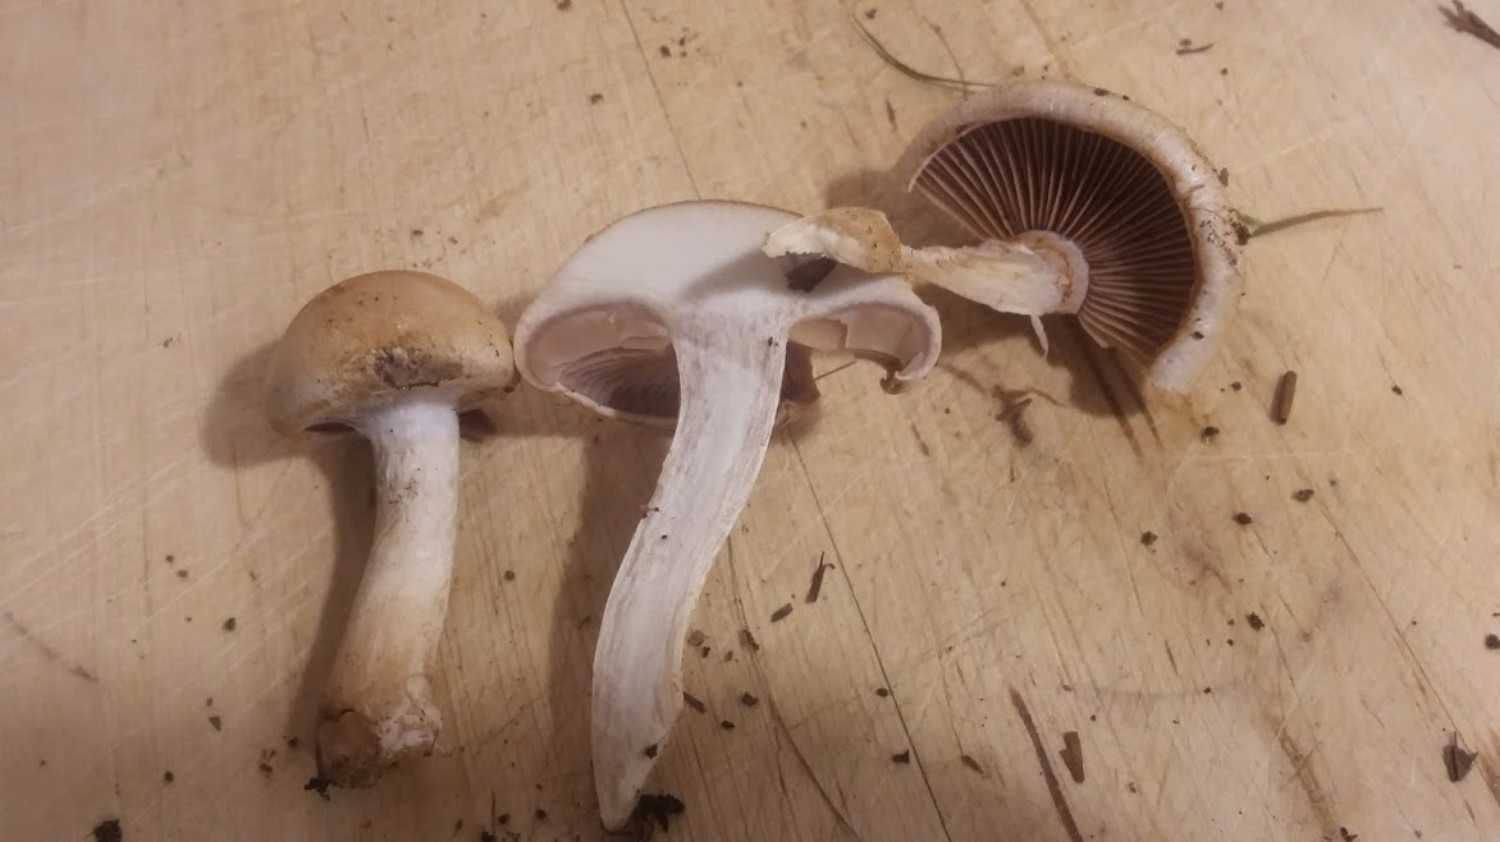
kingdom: Fungi
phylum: Basidiomycota
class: Agaricomycetes
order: Agaricales
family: Cortinariaceae
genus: Cortinarius
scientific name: Cortinarius
